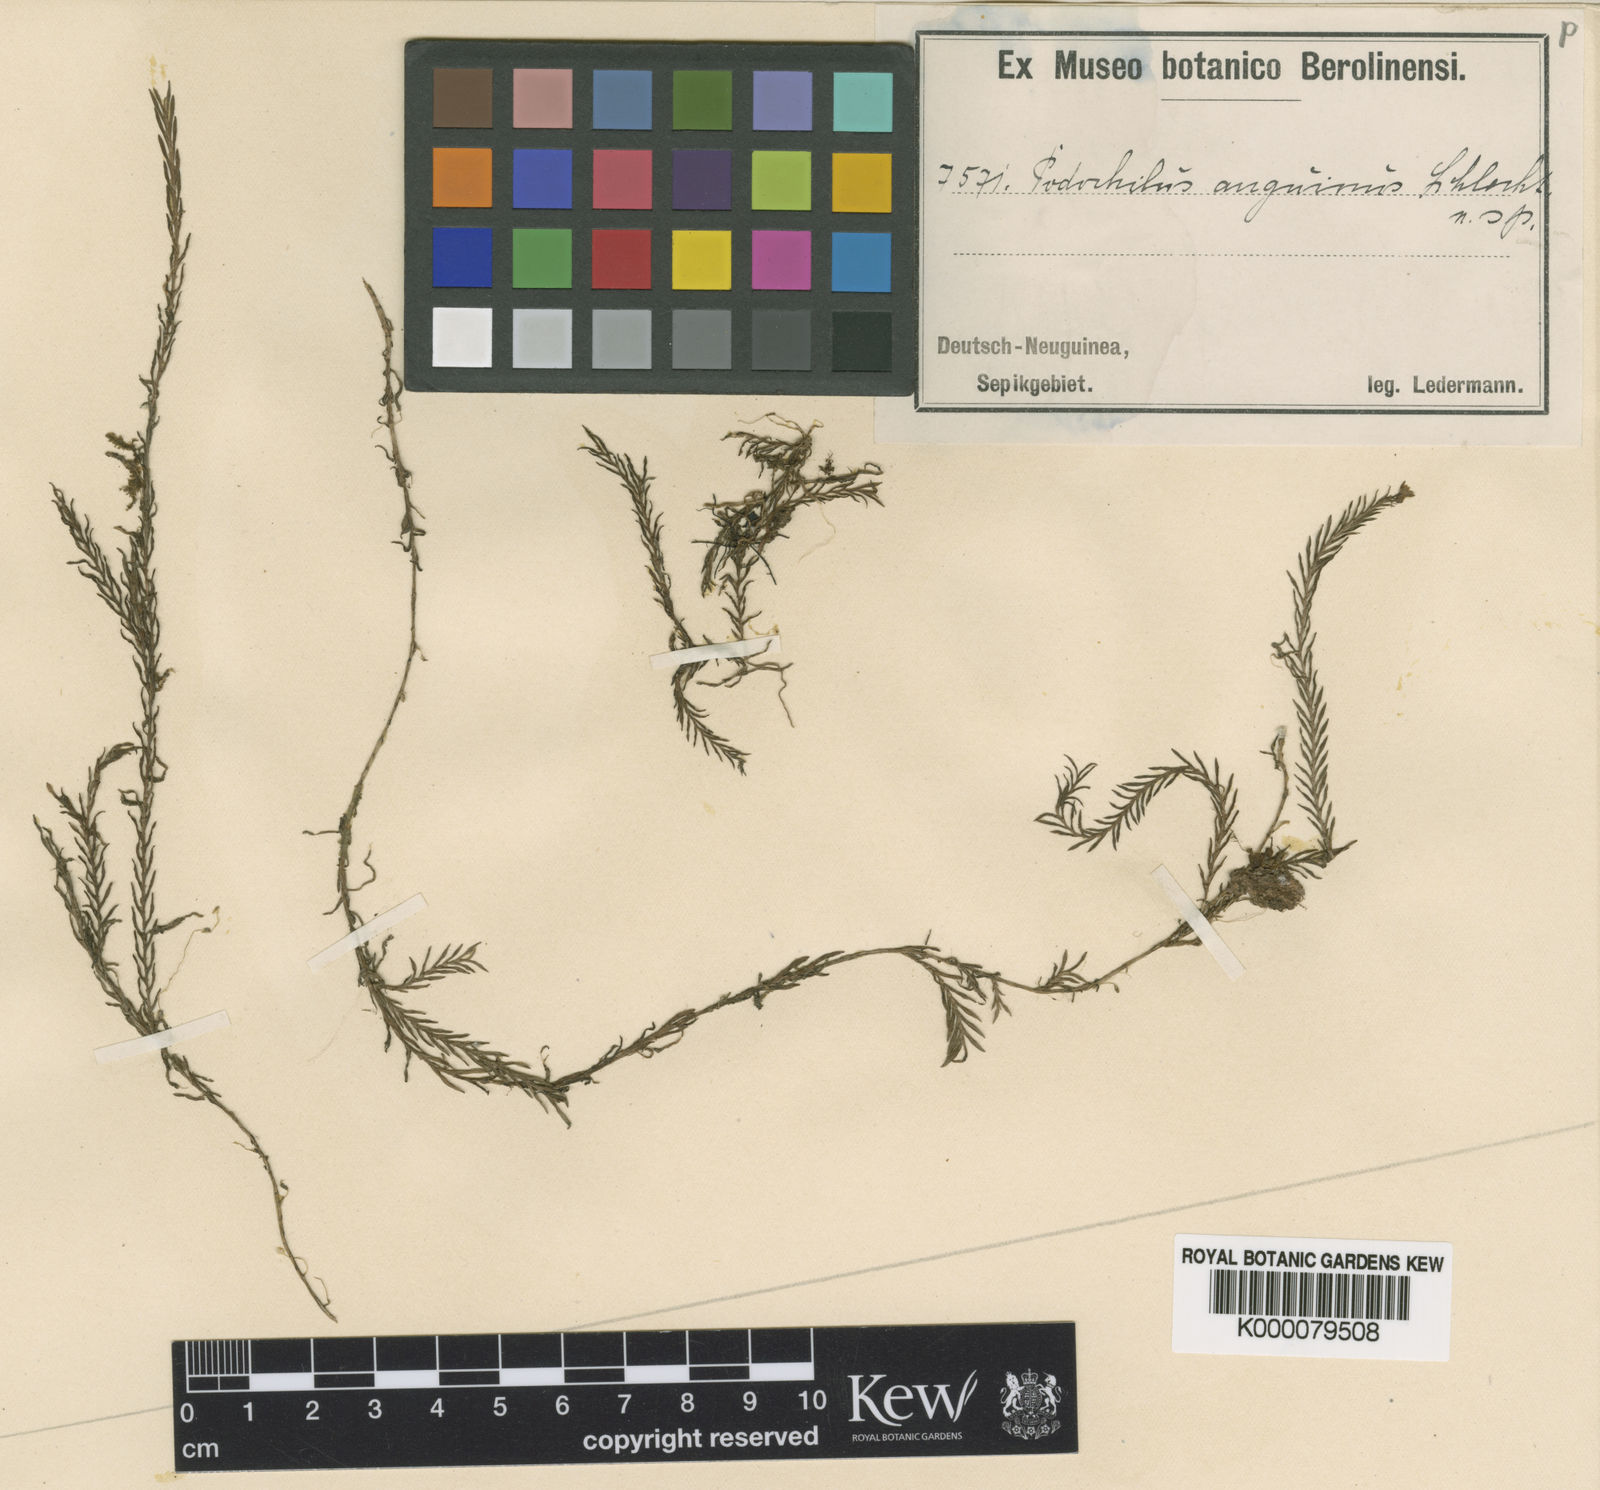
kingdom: Plantae
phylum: Tracheophyta
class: Liliopsida
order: Asparagales
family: Orchidaceae
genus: Podochilus
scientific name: Podochilus anguinus
